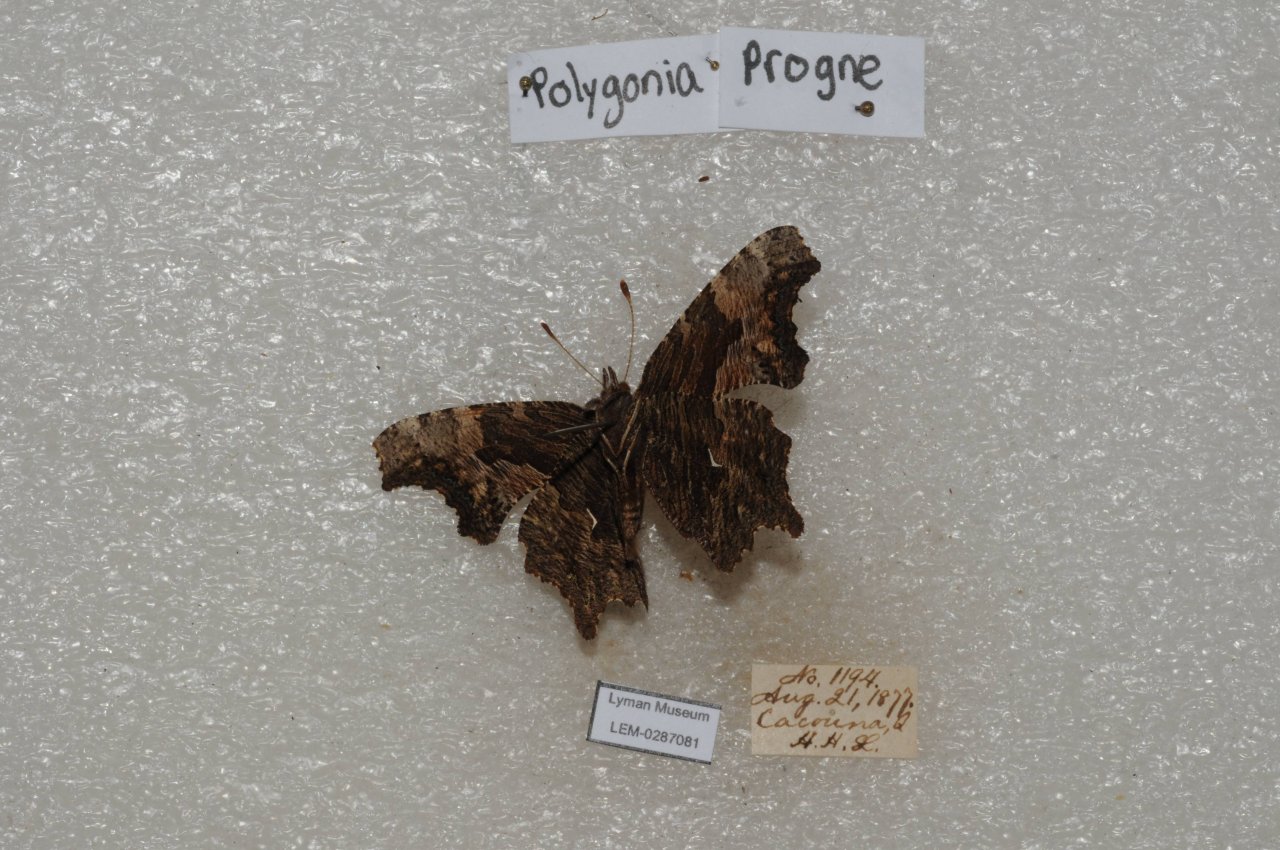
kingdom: Animalia
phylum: Arthropoda
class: Insecta
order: Lepidoptera
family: Nymphalidae
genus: Polygonia
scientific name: Polygonia progne
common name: Gray Comma
